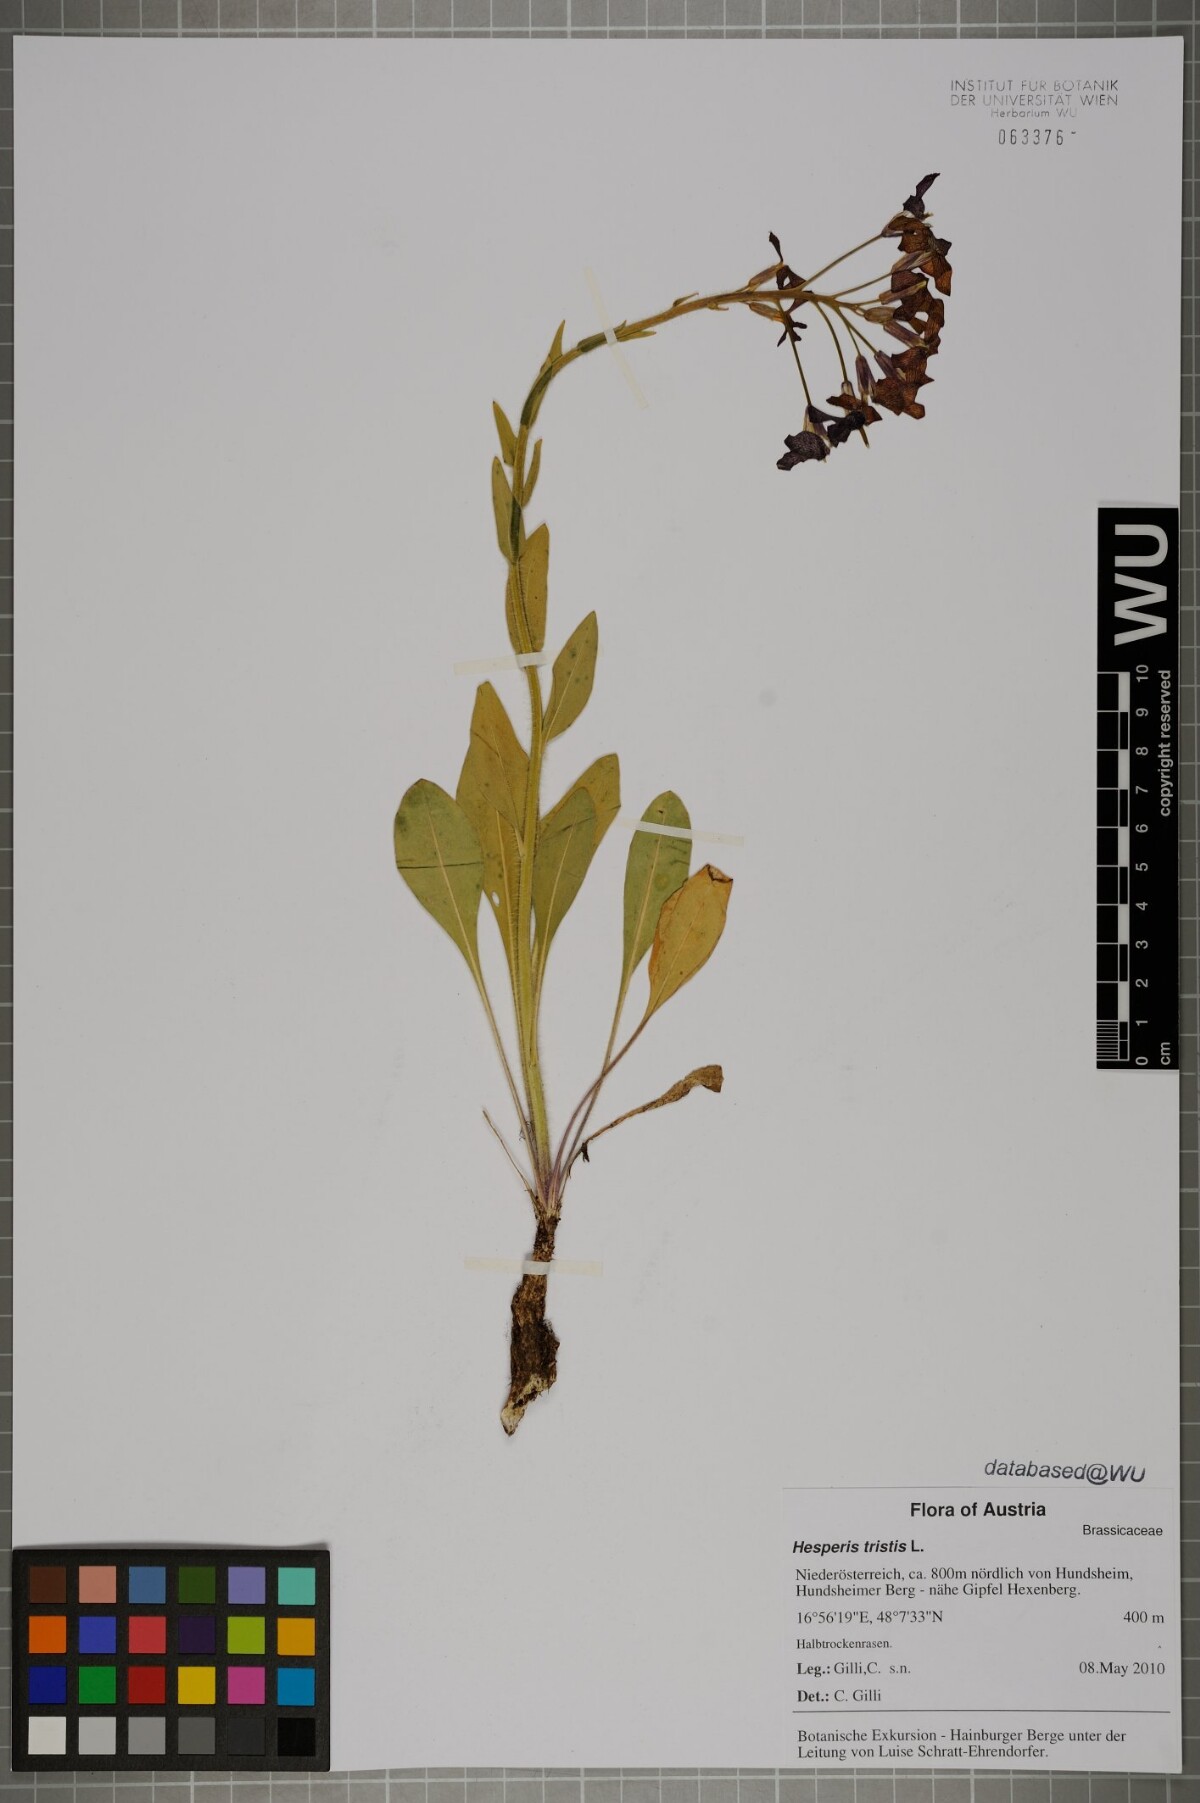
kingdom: Plantae
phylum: Tracheophyta
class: Magnoliopsida
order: Brassicales
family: Brassicaceae
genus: Hesperis
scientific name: Hesperis tristis
